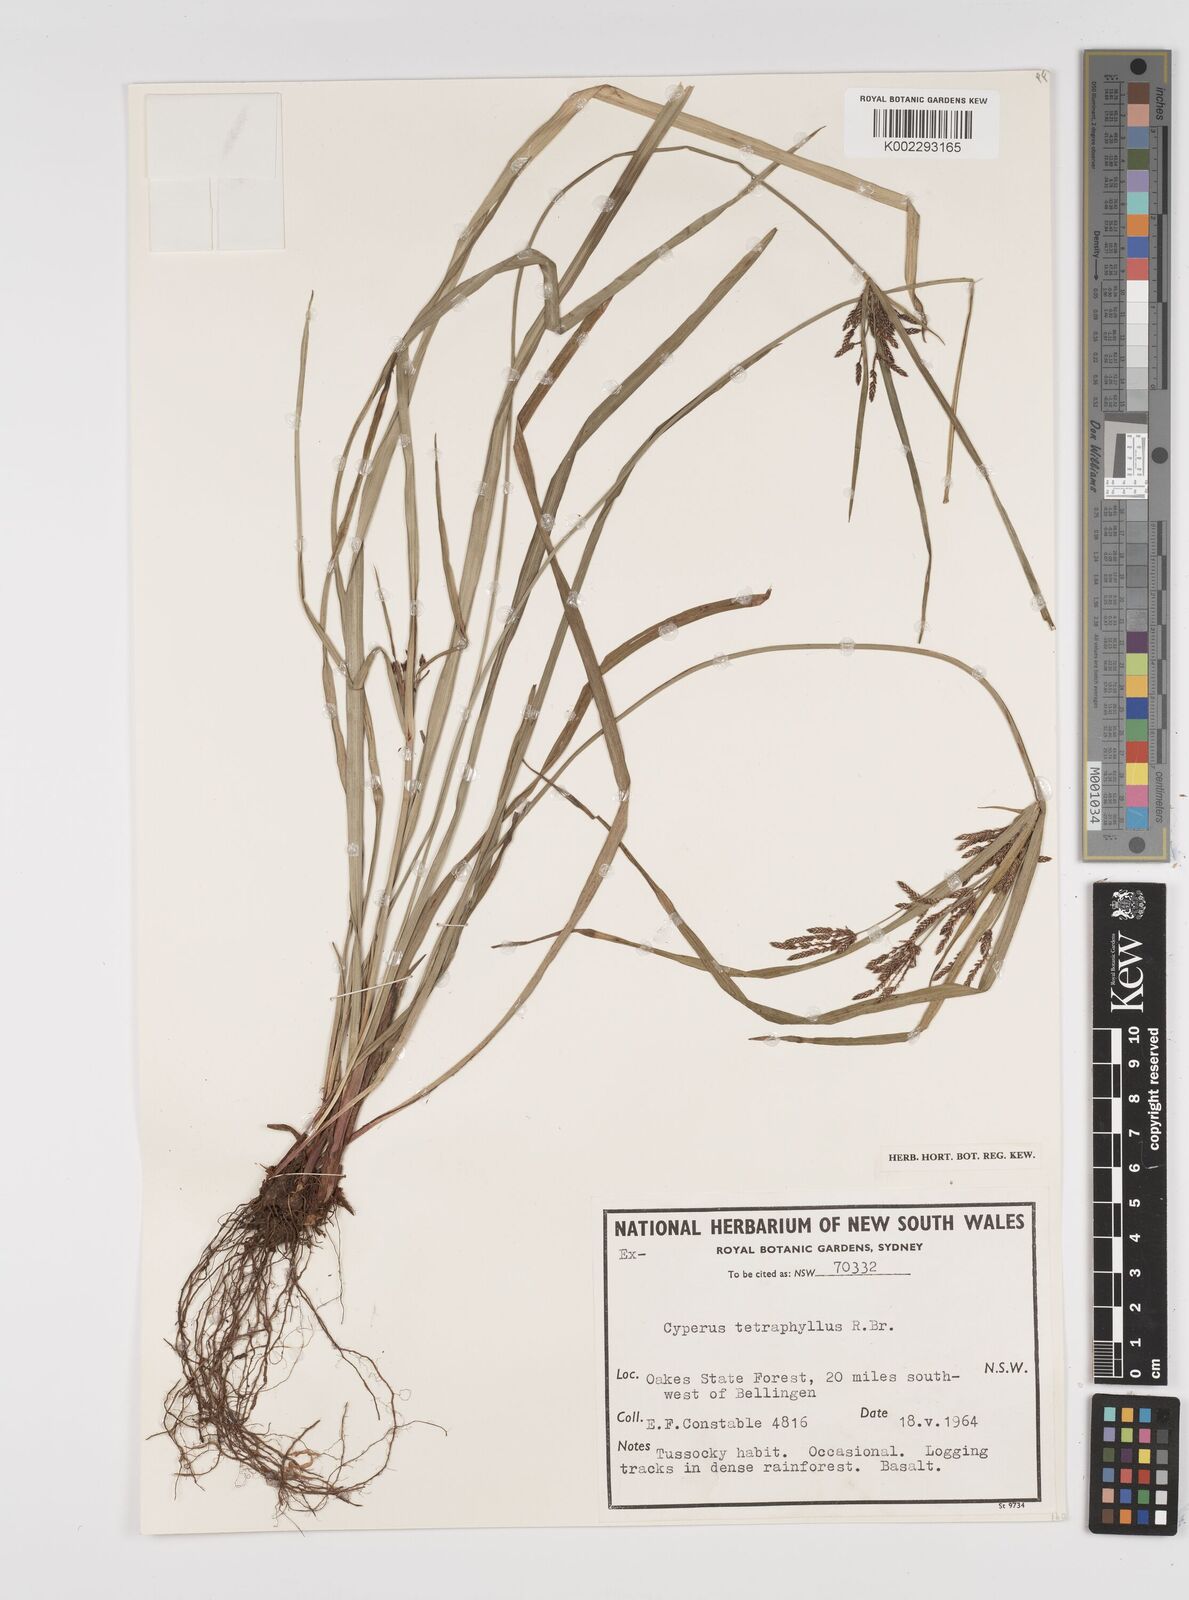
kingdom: Plantae
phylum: Tracheophyta
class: Liliopsida
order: Poales
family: Cyperaceae
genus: Cyperus
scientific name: Cyperus tetraphyllus
